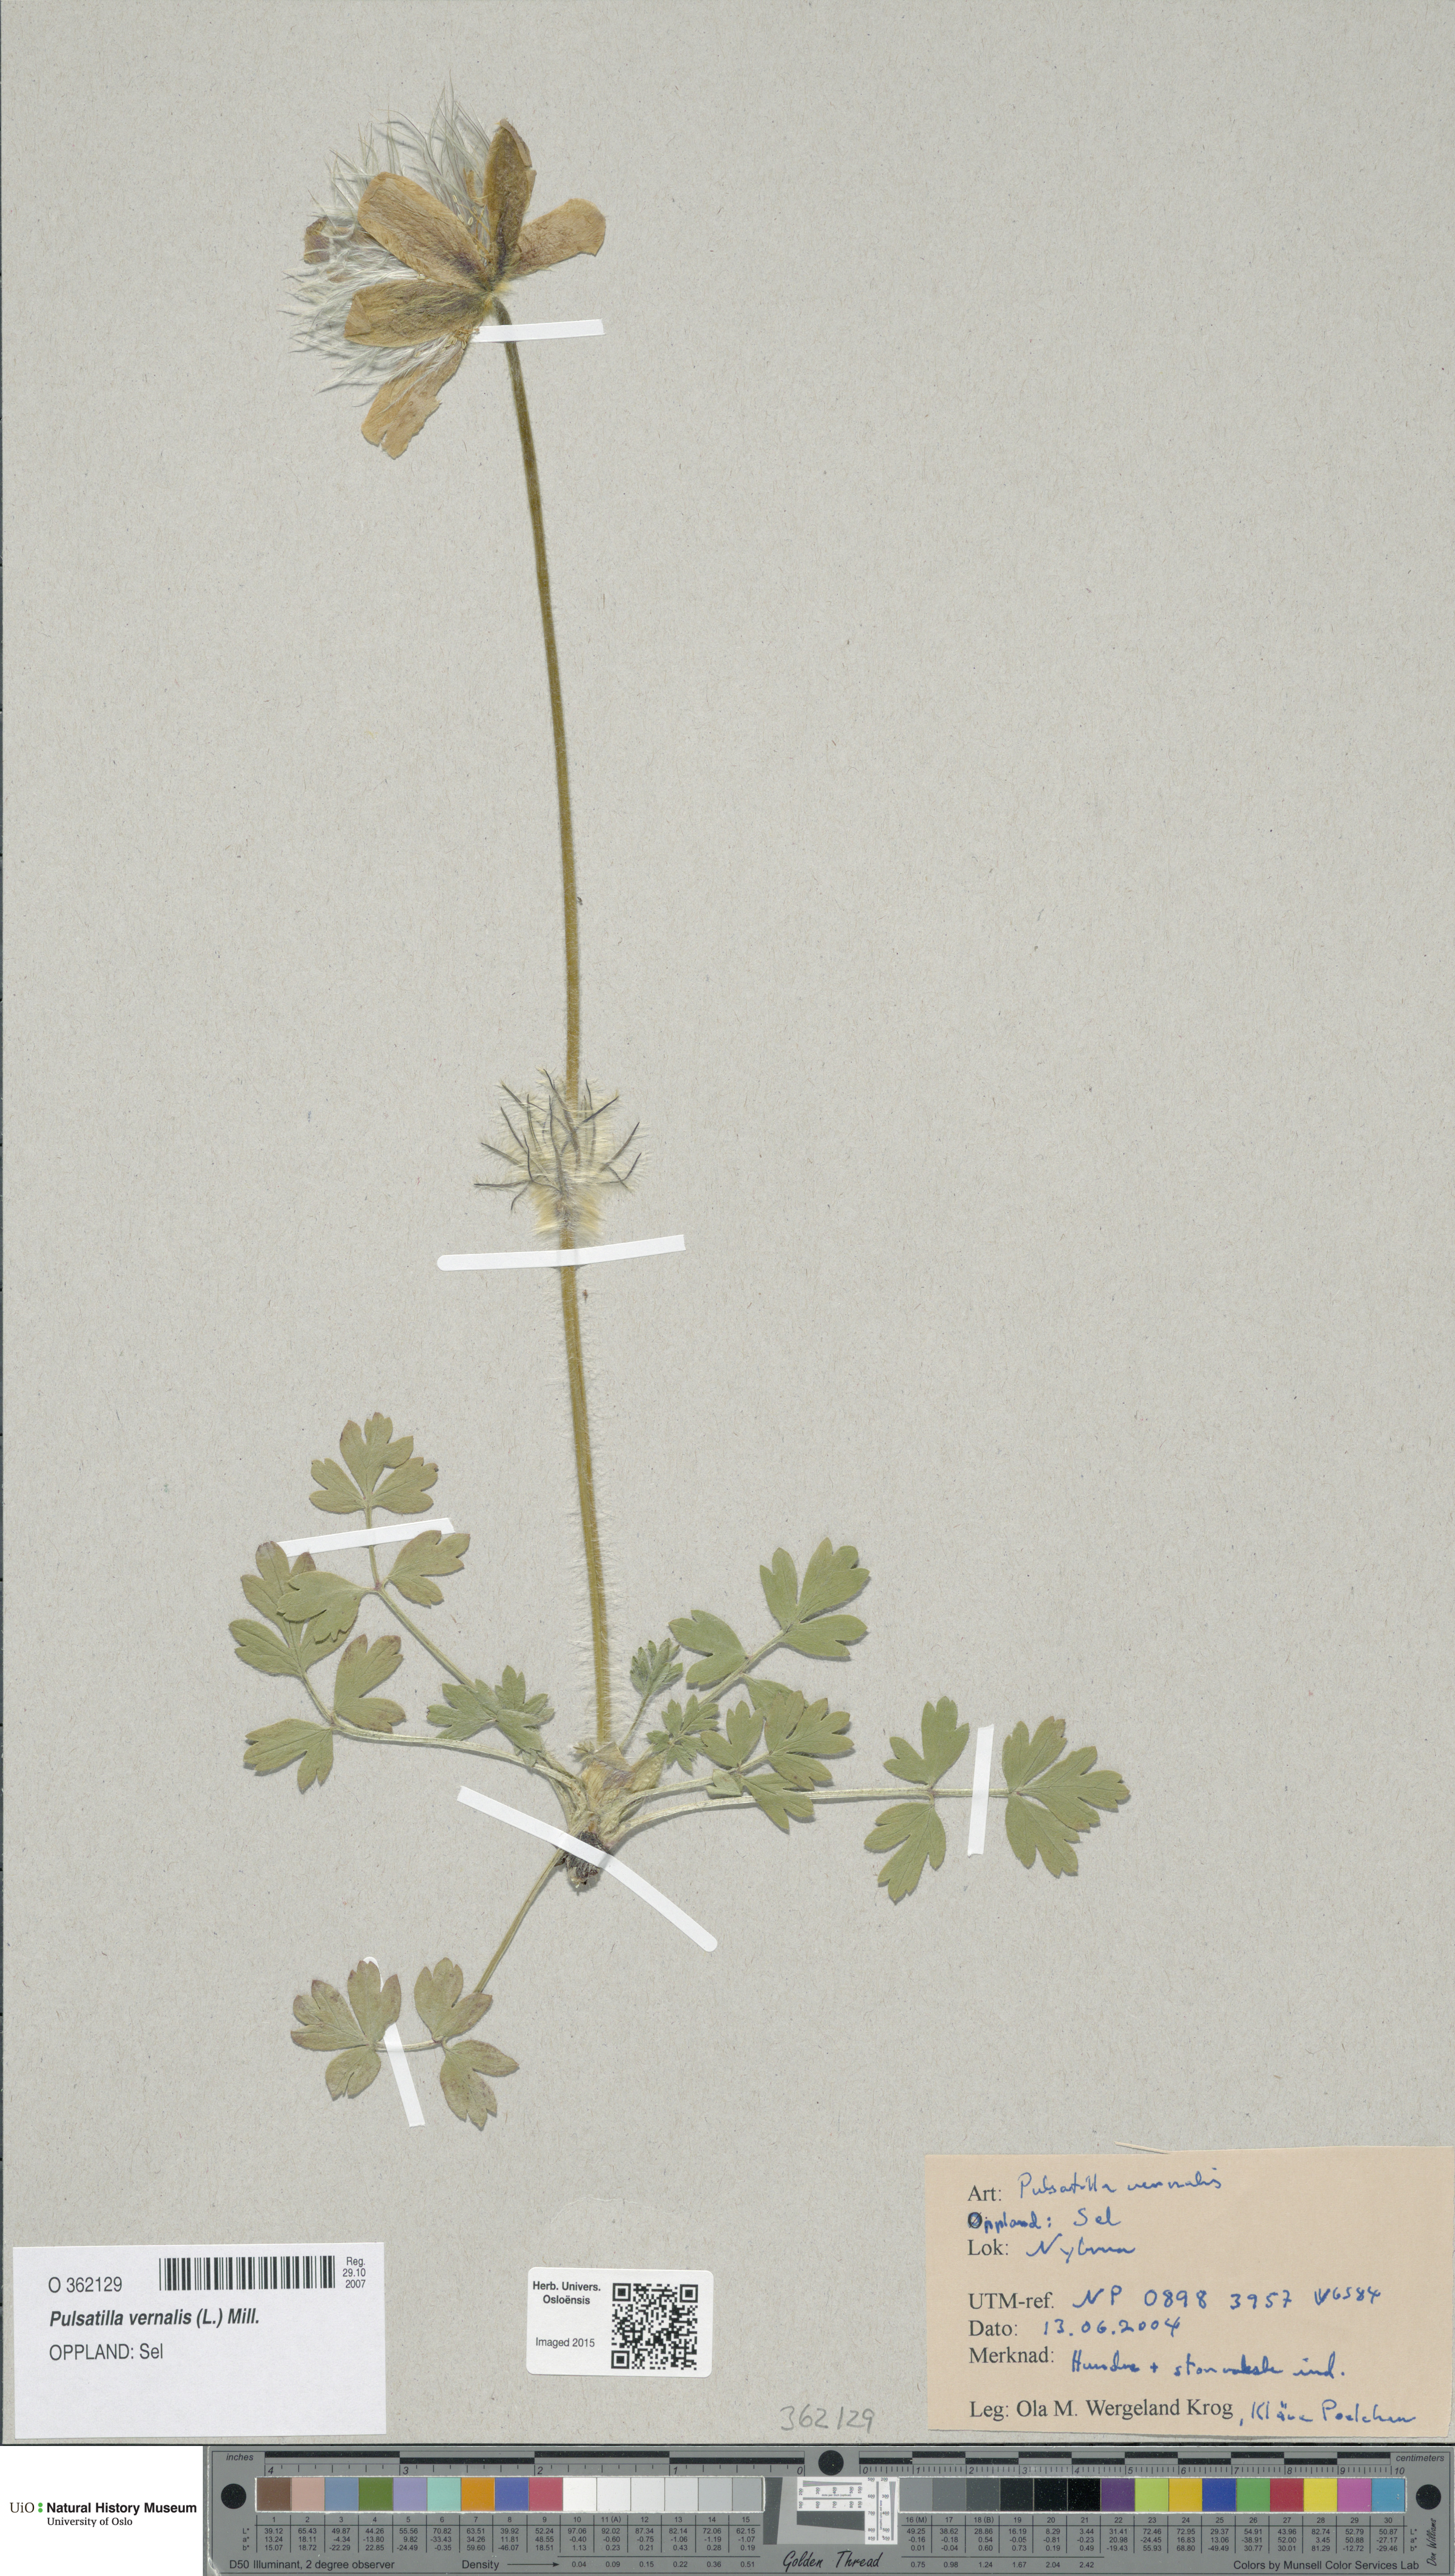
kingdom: Plantae
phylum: Tracheophyta
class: Magnoliopsida
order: Ranunculales
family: Ranunculaceae
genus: Pulsatilla
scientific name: Pulsatilla vernalis
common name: Spring pasque flower
